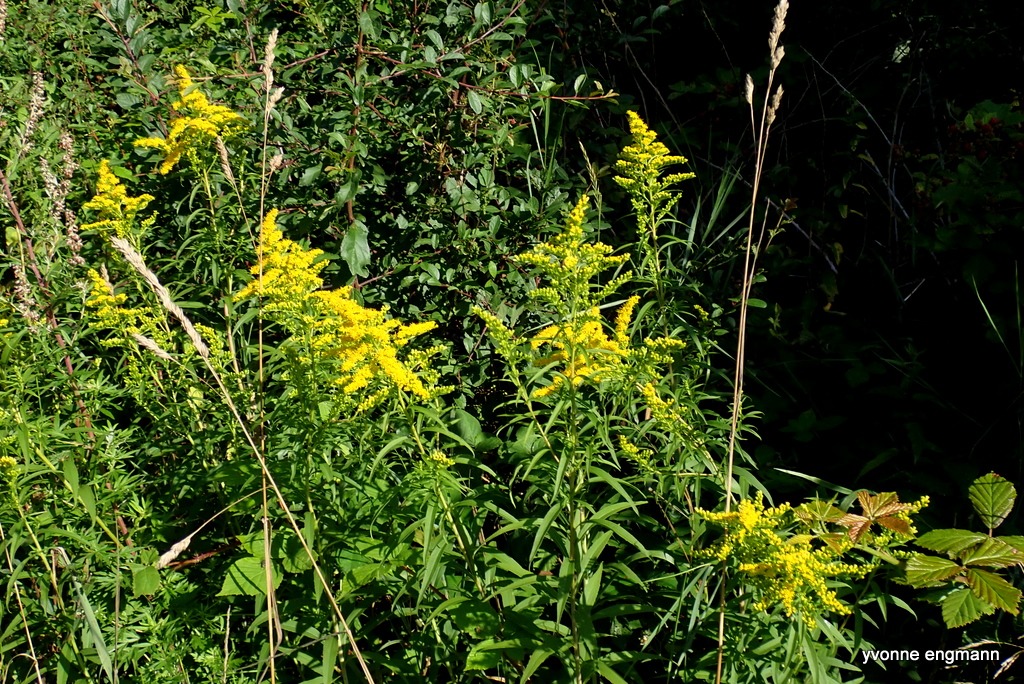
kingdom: Plantae
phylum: Tracheophyta
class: Magnoliopsida
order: Asterales
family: Asteraceae
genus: Solidago
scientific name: Solidago
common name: Gyldenrisslægten
